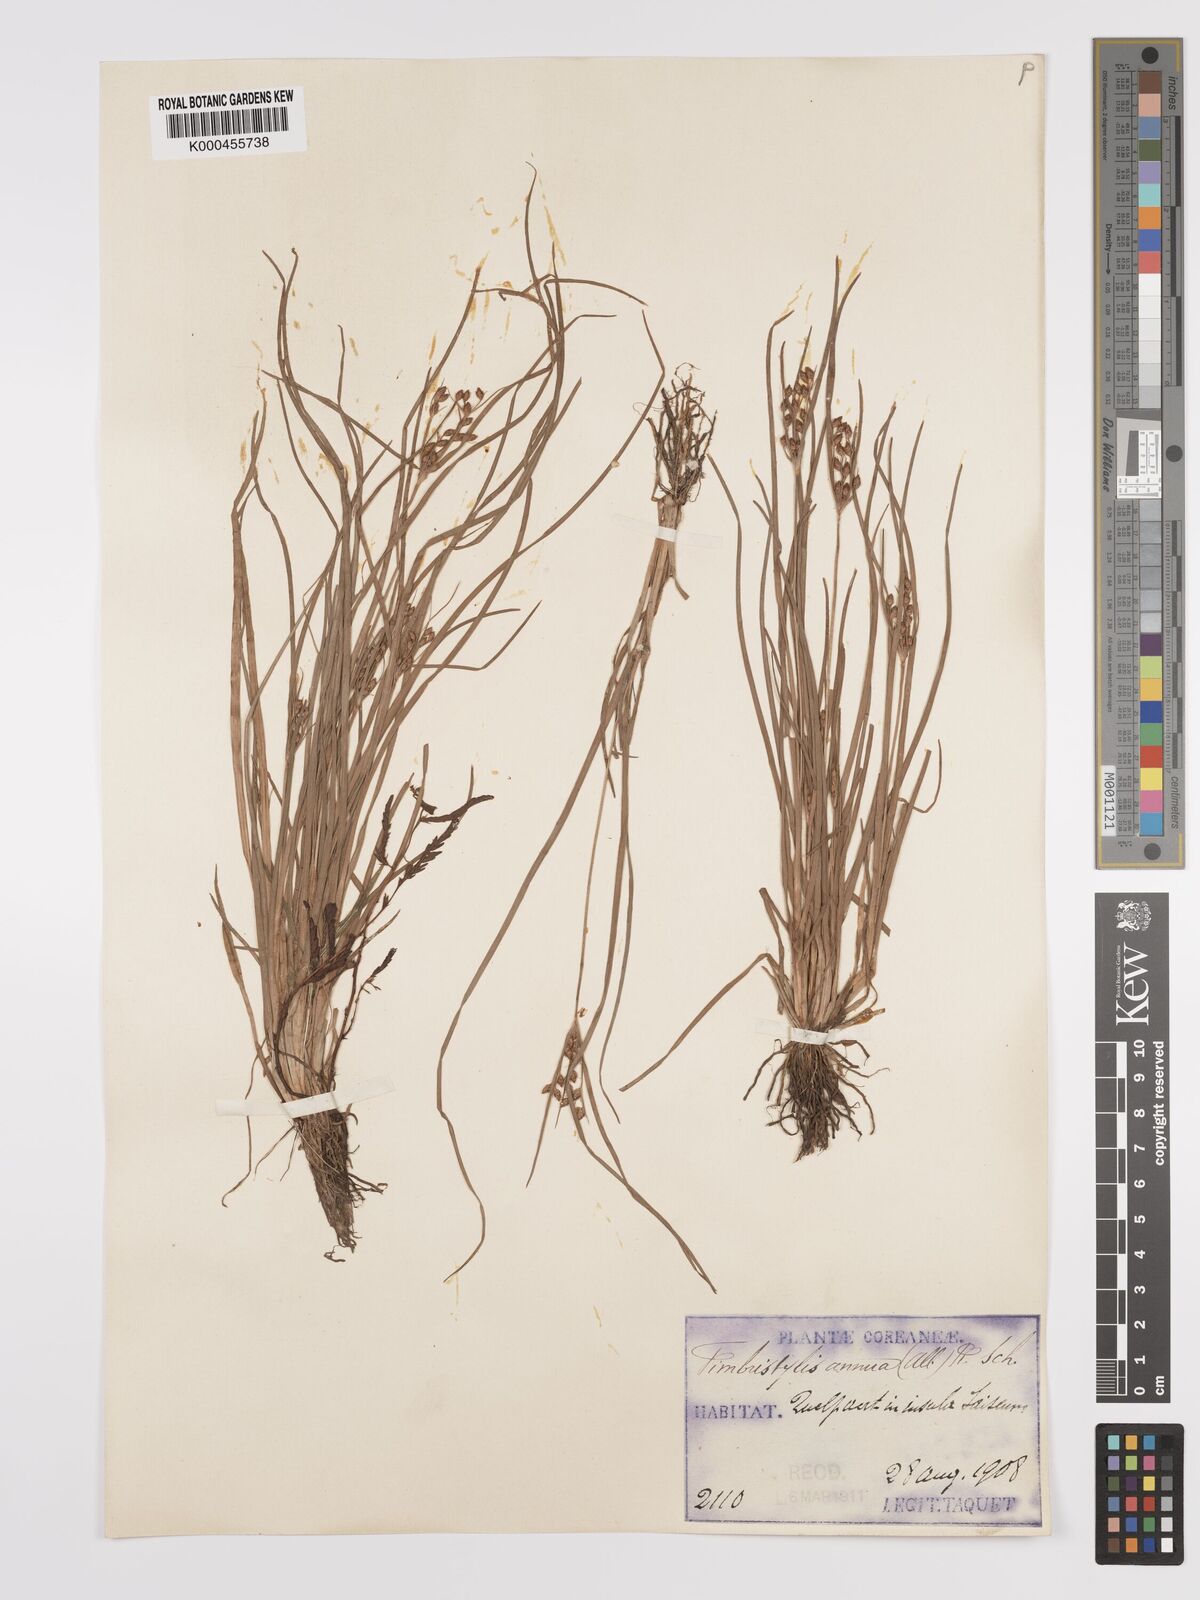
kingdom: Plantae
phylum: Tracheophyta
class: Liliopsida
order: Poales
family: Cyperaceae
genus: Fimbristylis
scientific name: Fimbristylis dichotoma
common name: Forked fimbry
